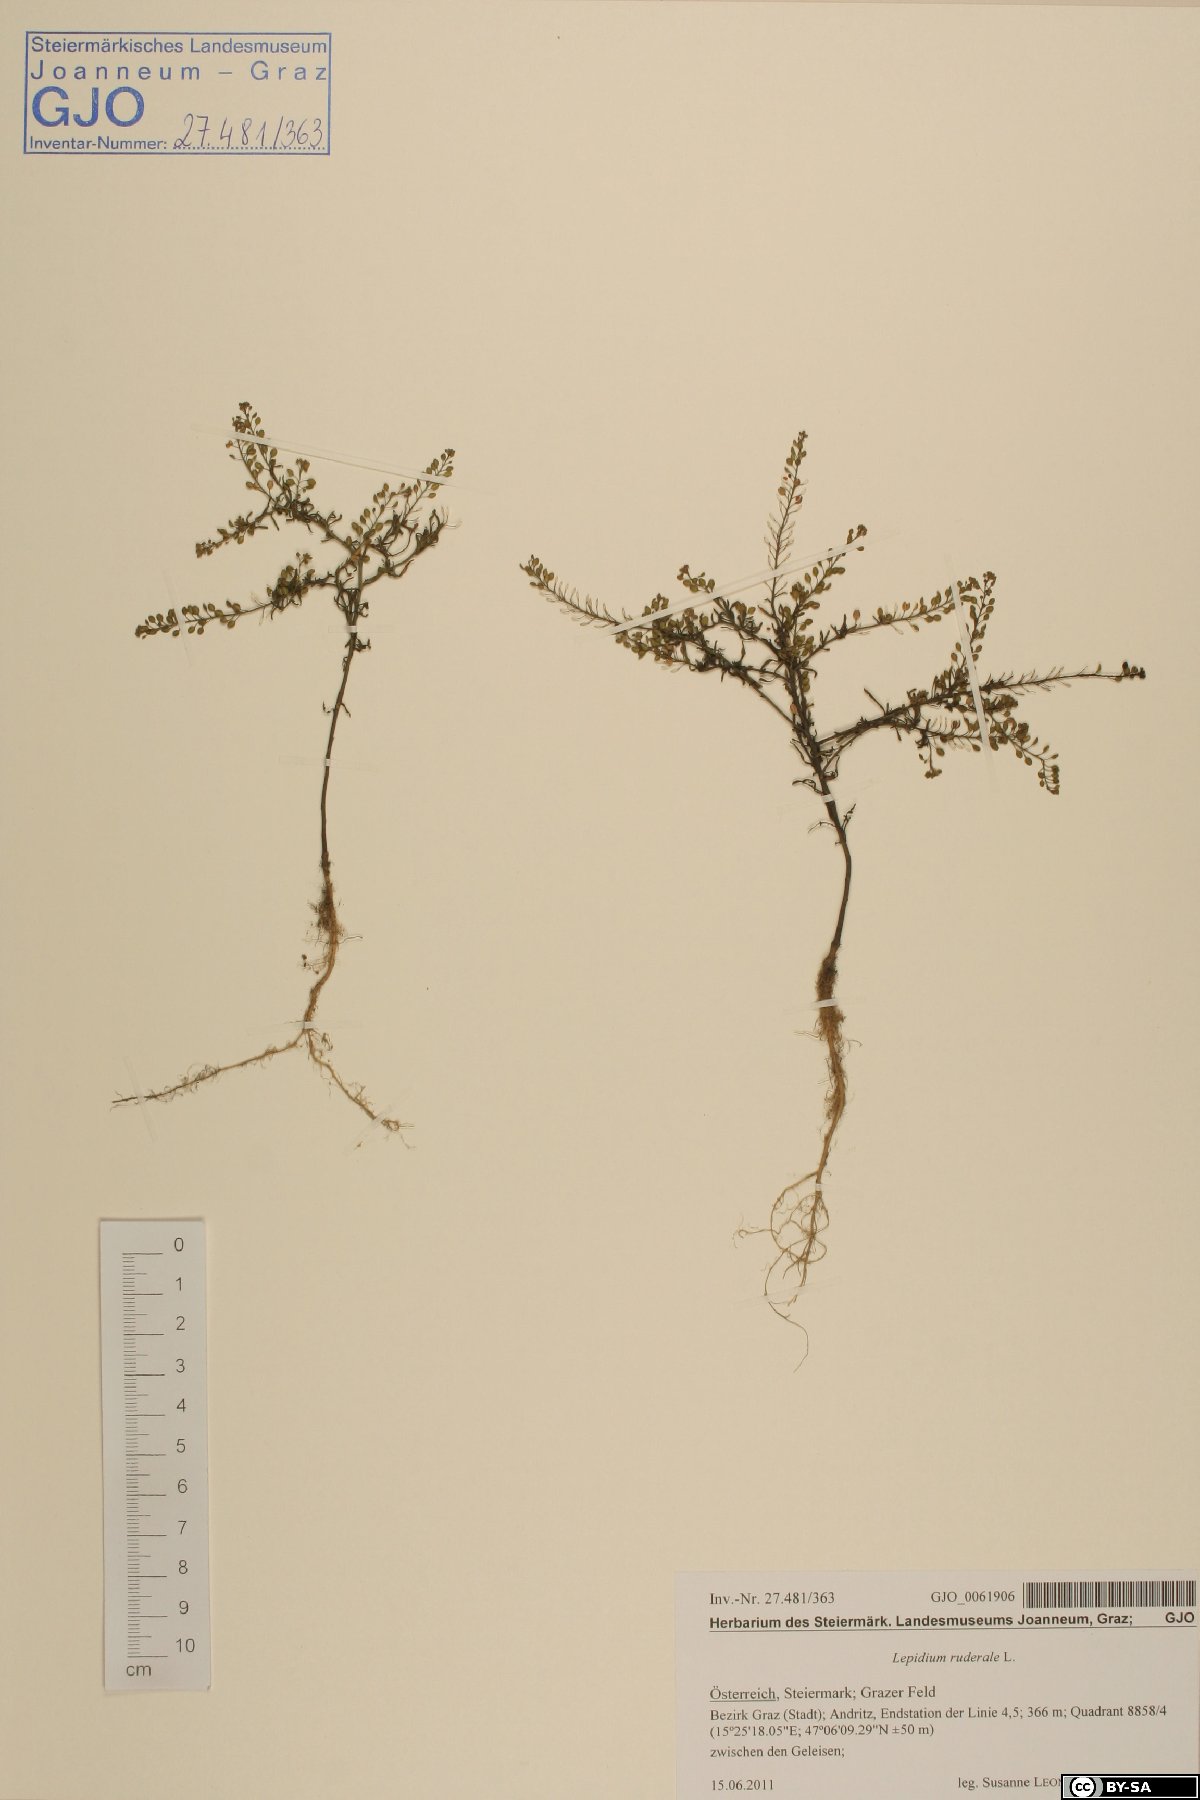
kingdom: Plantae
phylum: Tracheophyta
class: Magnoliopsida
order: Brassicales
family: Brassicaceae
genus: Lepidium
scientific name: Lepidium ruderale
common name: Narrow-leaved pepperwort
